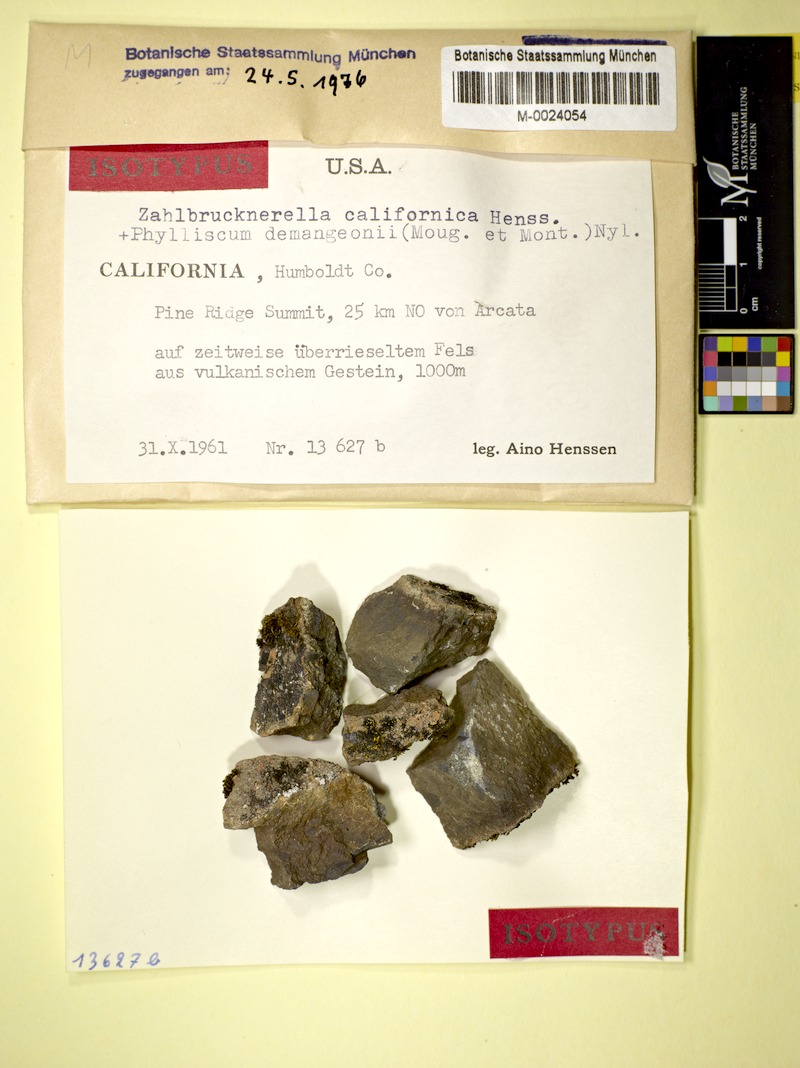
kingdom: Fungi
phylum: Ascomycota
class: Lichinomycetes
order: Lichinales
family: Lichinaceae
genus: Zahlbrucknerella
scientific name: Zahlbrucknerella californica
